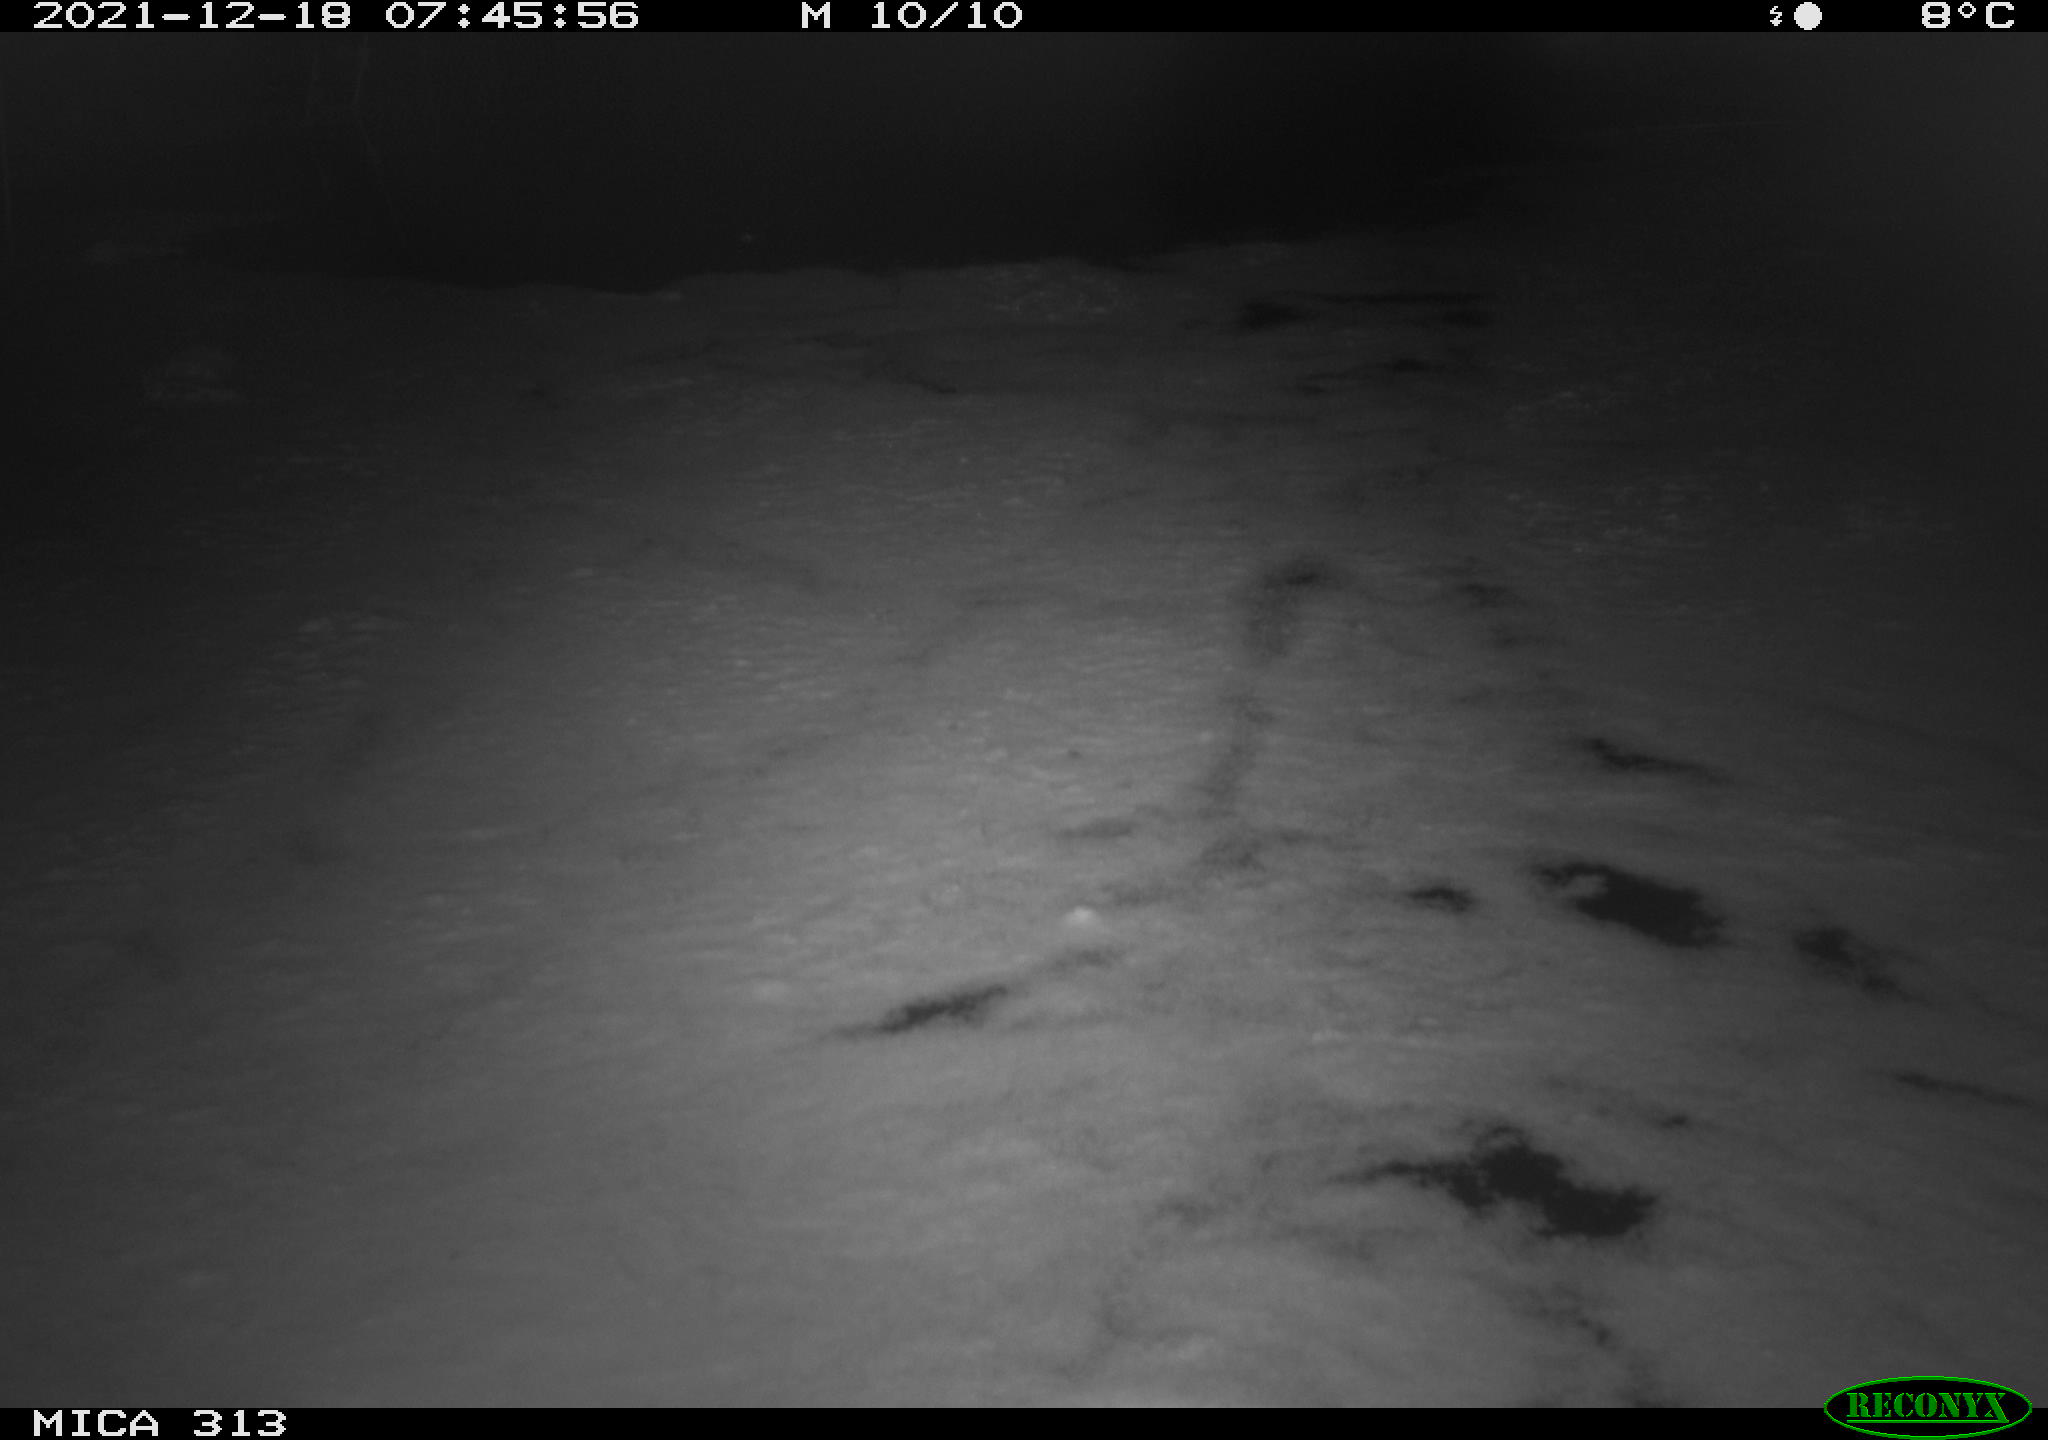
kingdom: Animalia
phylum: Chordata
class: Aves
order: Gruiformes
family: Rallidae
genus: Gallinula
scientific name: Gallinula chloropus
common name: Common moorhen
